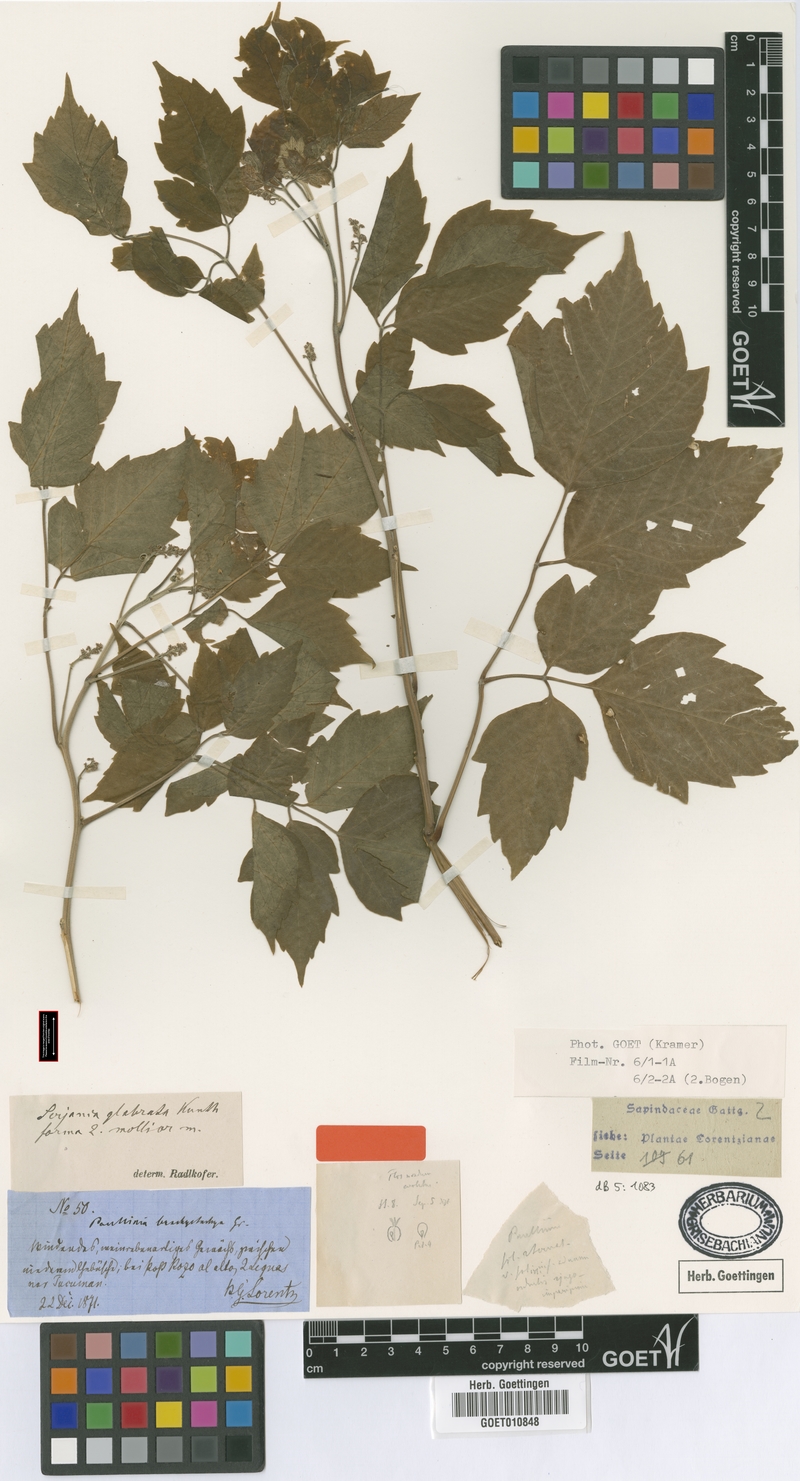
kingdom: Plantae
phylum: Tracheophyta
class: Magnoliopsida
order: Sapindales
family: Sapindaceae
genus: Serjania
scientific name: Serjania glabrata
